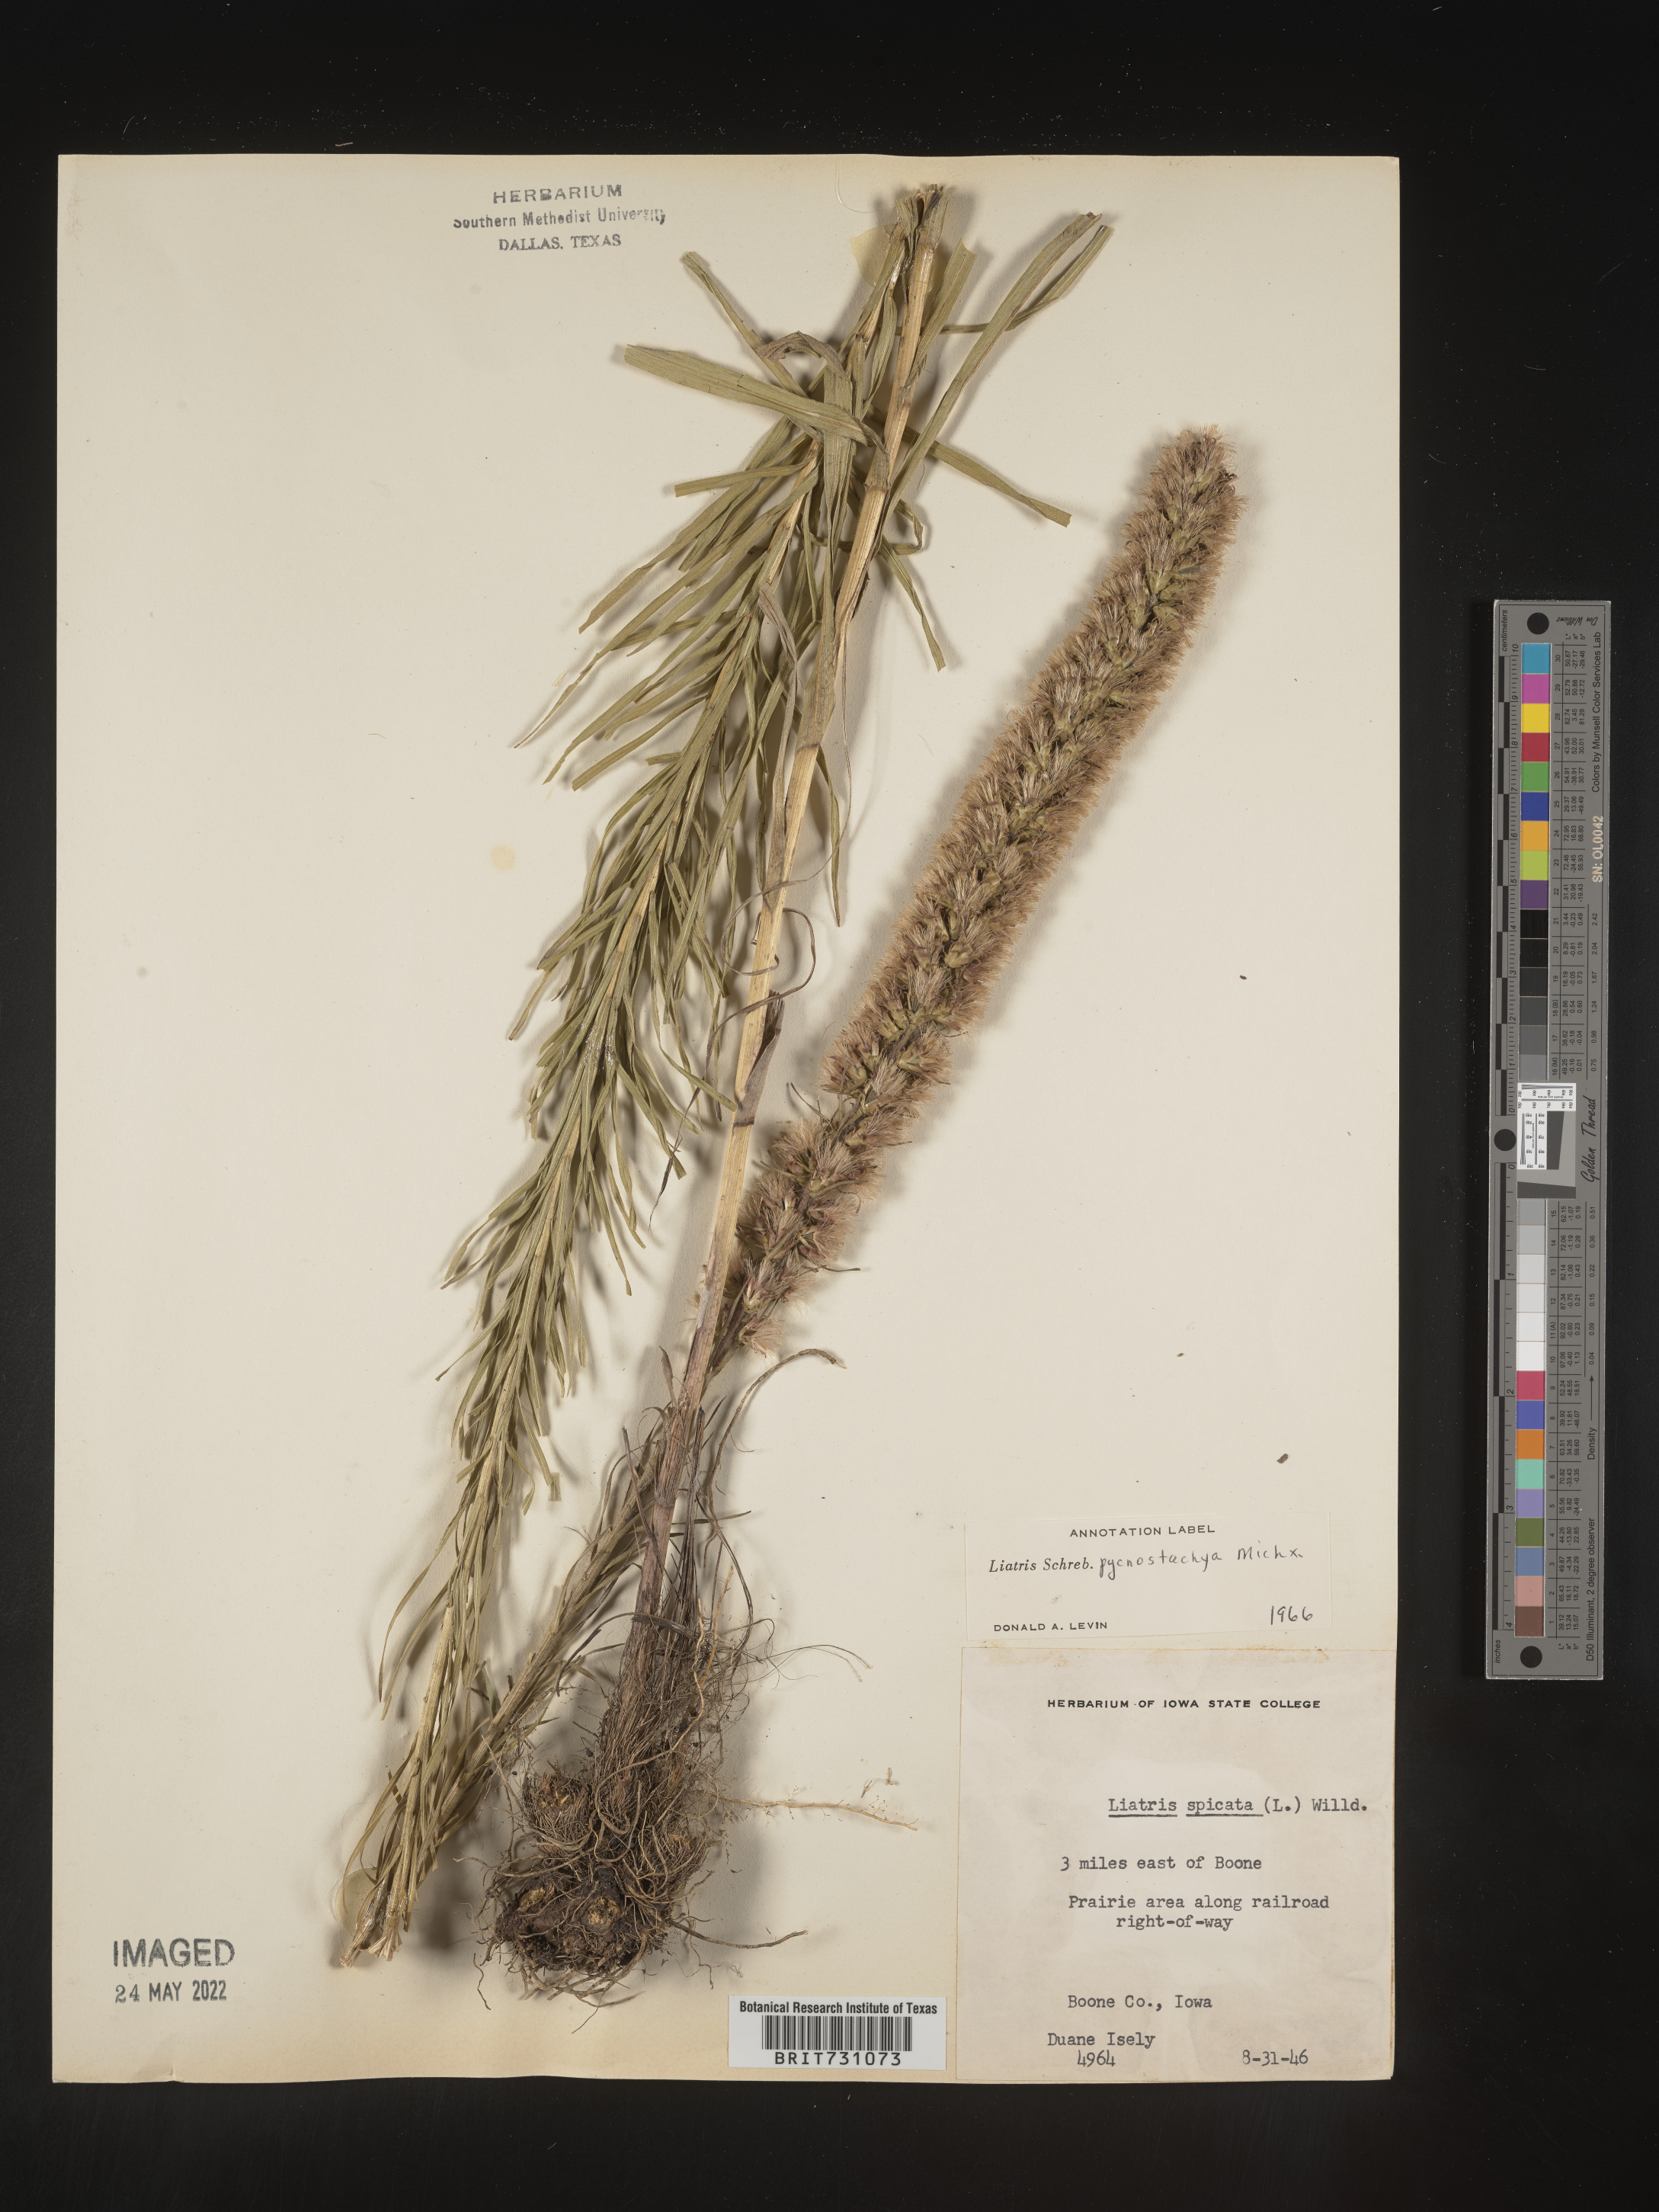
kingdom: Plantae
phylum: Tracheophyta
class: Magnoliopsida
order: Asterales
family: Asteraceae
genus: Liatris
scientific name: Liatris pycnostachya
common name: Cattail gayfeather
